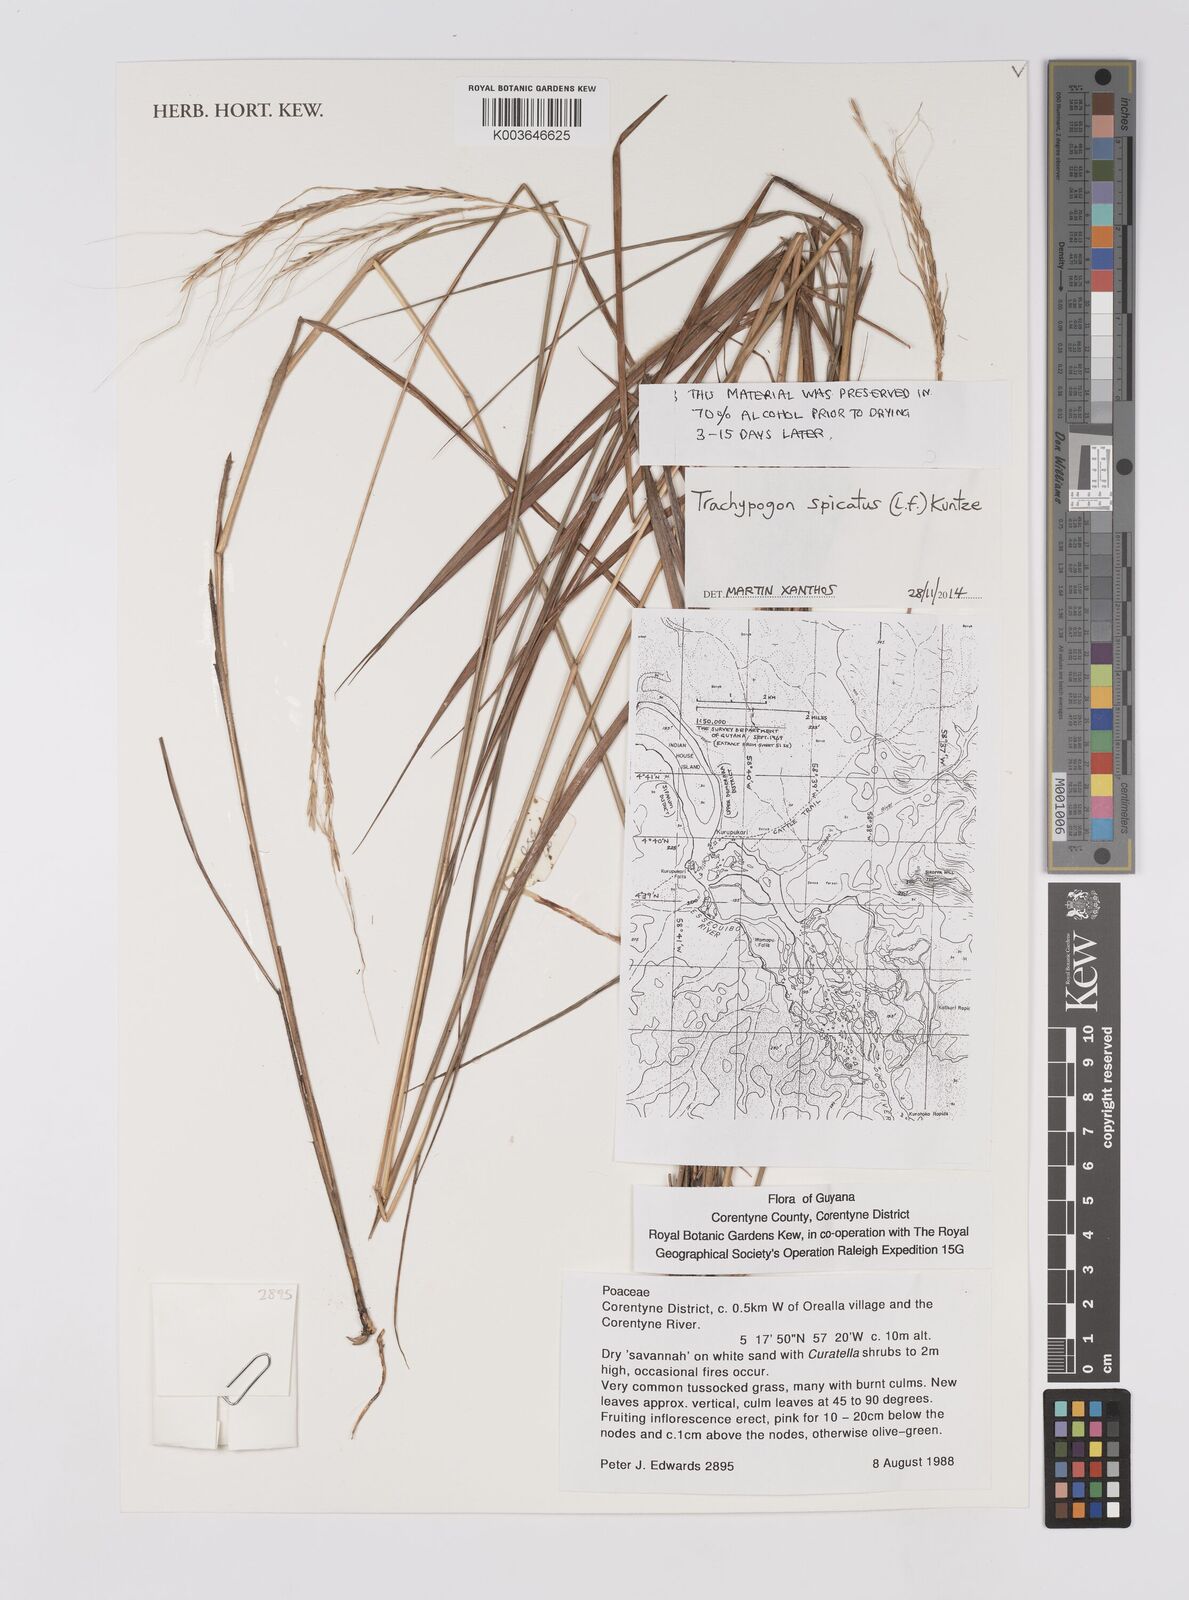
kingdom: Plantae
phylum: Tracheophyta
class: Liliopsida
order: Poales
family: Poaceae
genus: Trachypogon
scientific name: Trachypogon spicatus
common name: Crinkle-awn
